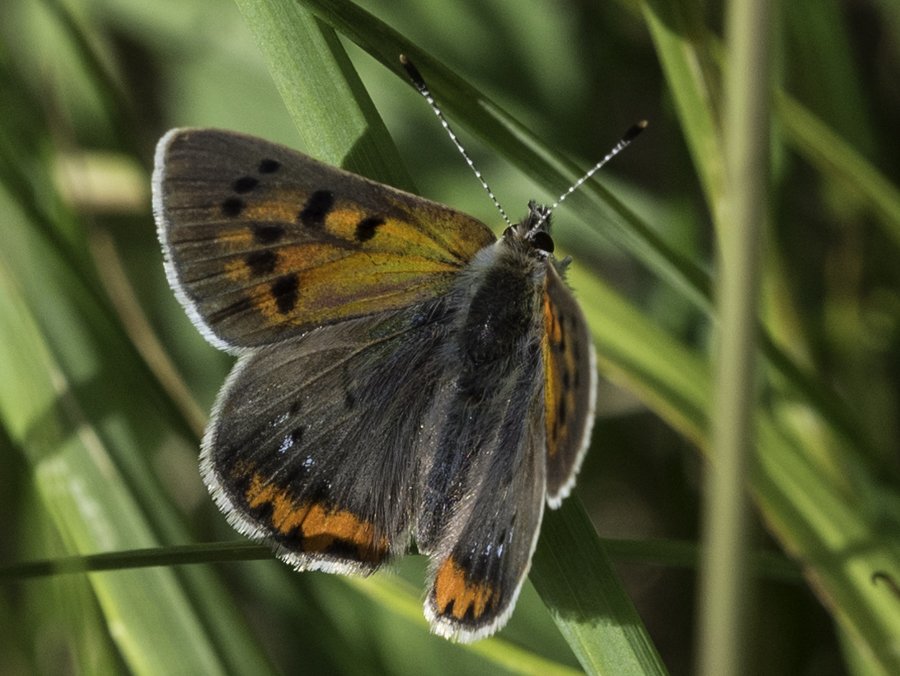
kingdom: Animalia
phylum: Arthropoda
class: Insecta
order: Lepidoptera
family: Lycaenidae
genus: Lycaena
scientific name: Lycaena phlaeas
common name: American Copper
